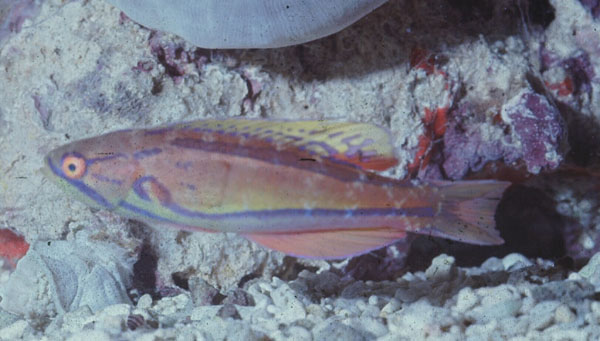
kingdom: Animalia
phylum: Chordata
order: Perciformes
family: Labridae
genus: Paracheilinus
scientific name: Paracheilinus piscilineatus
